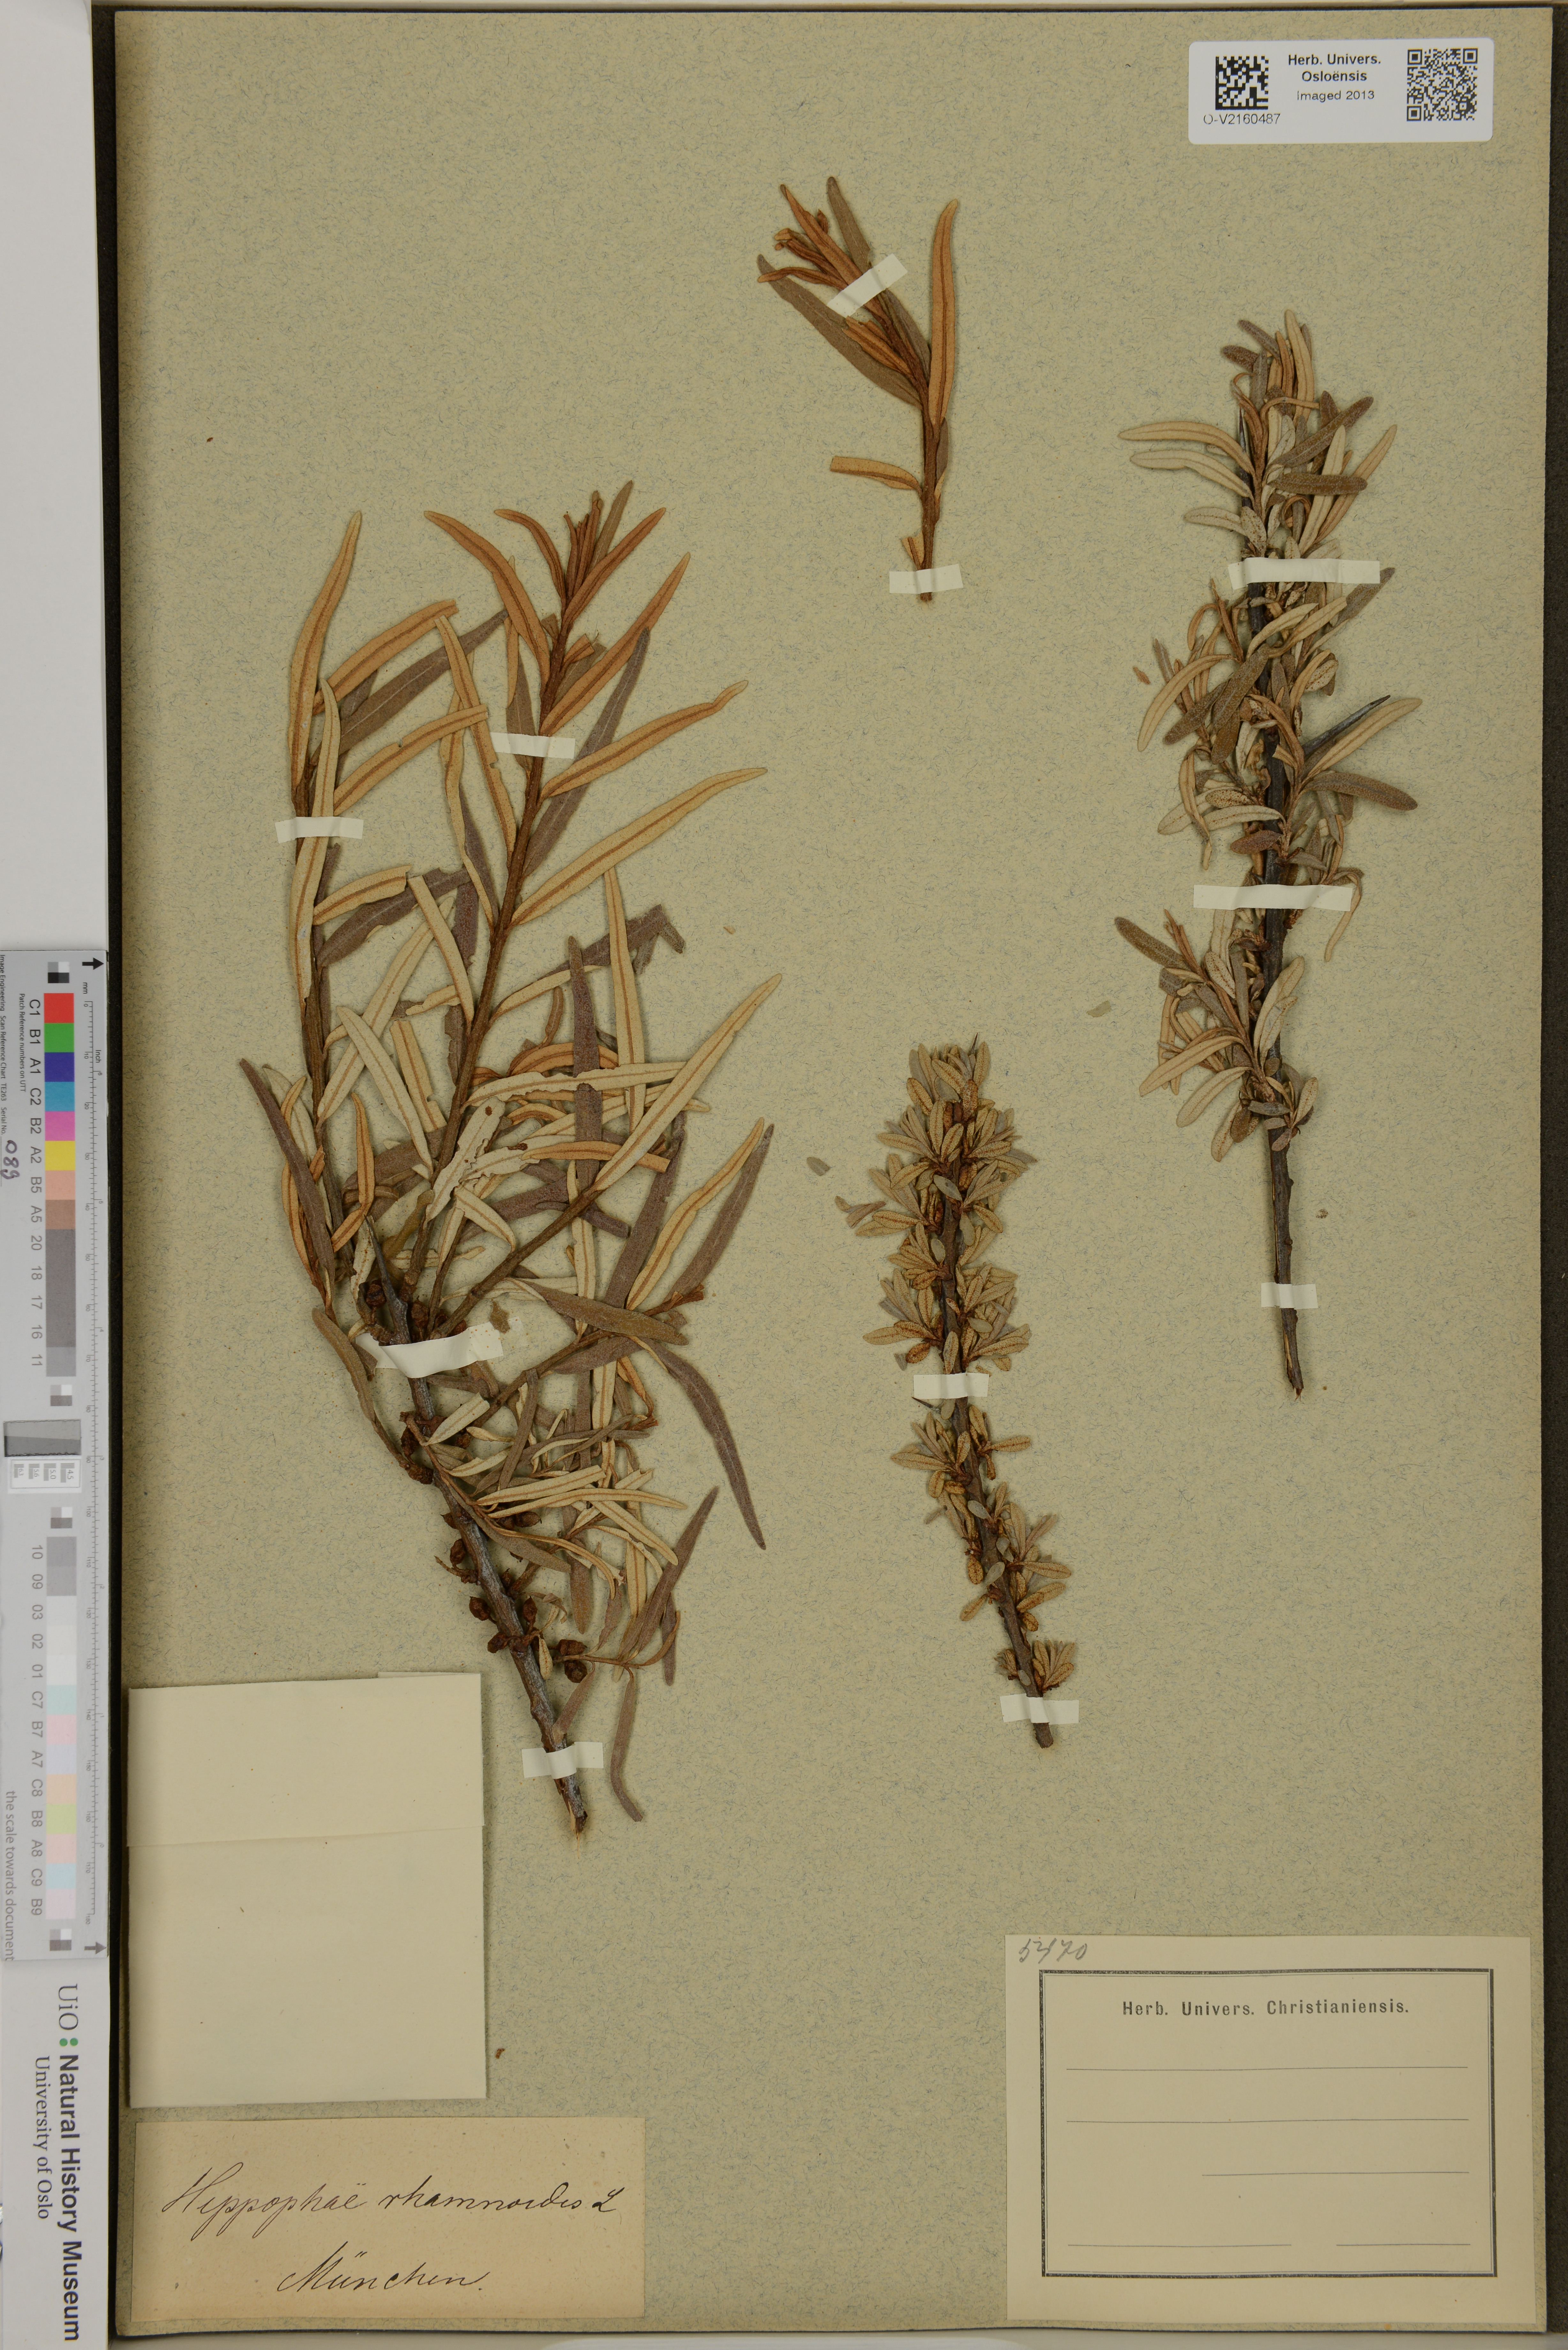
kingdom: Plantae
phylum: Tracheophyta
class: Magnoliopsida
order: Rosales
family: Elaeagnaceae
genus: Hippophae
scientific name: Hippophae rhamnoides
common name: Sea-buckthorn
